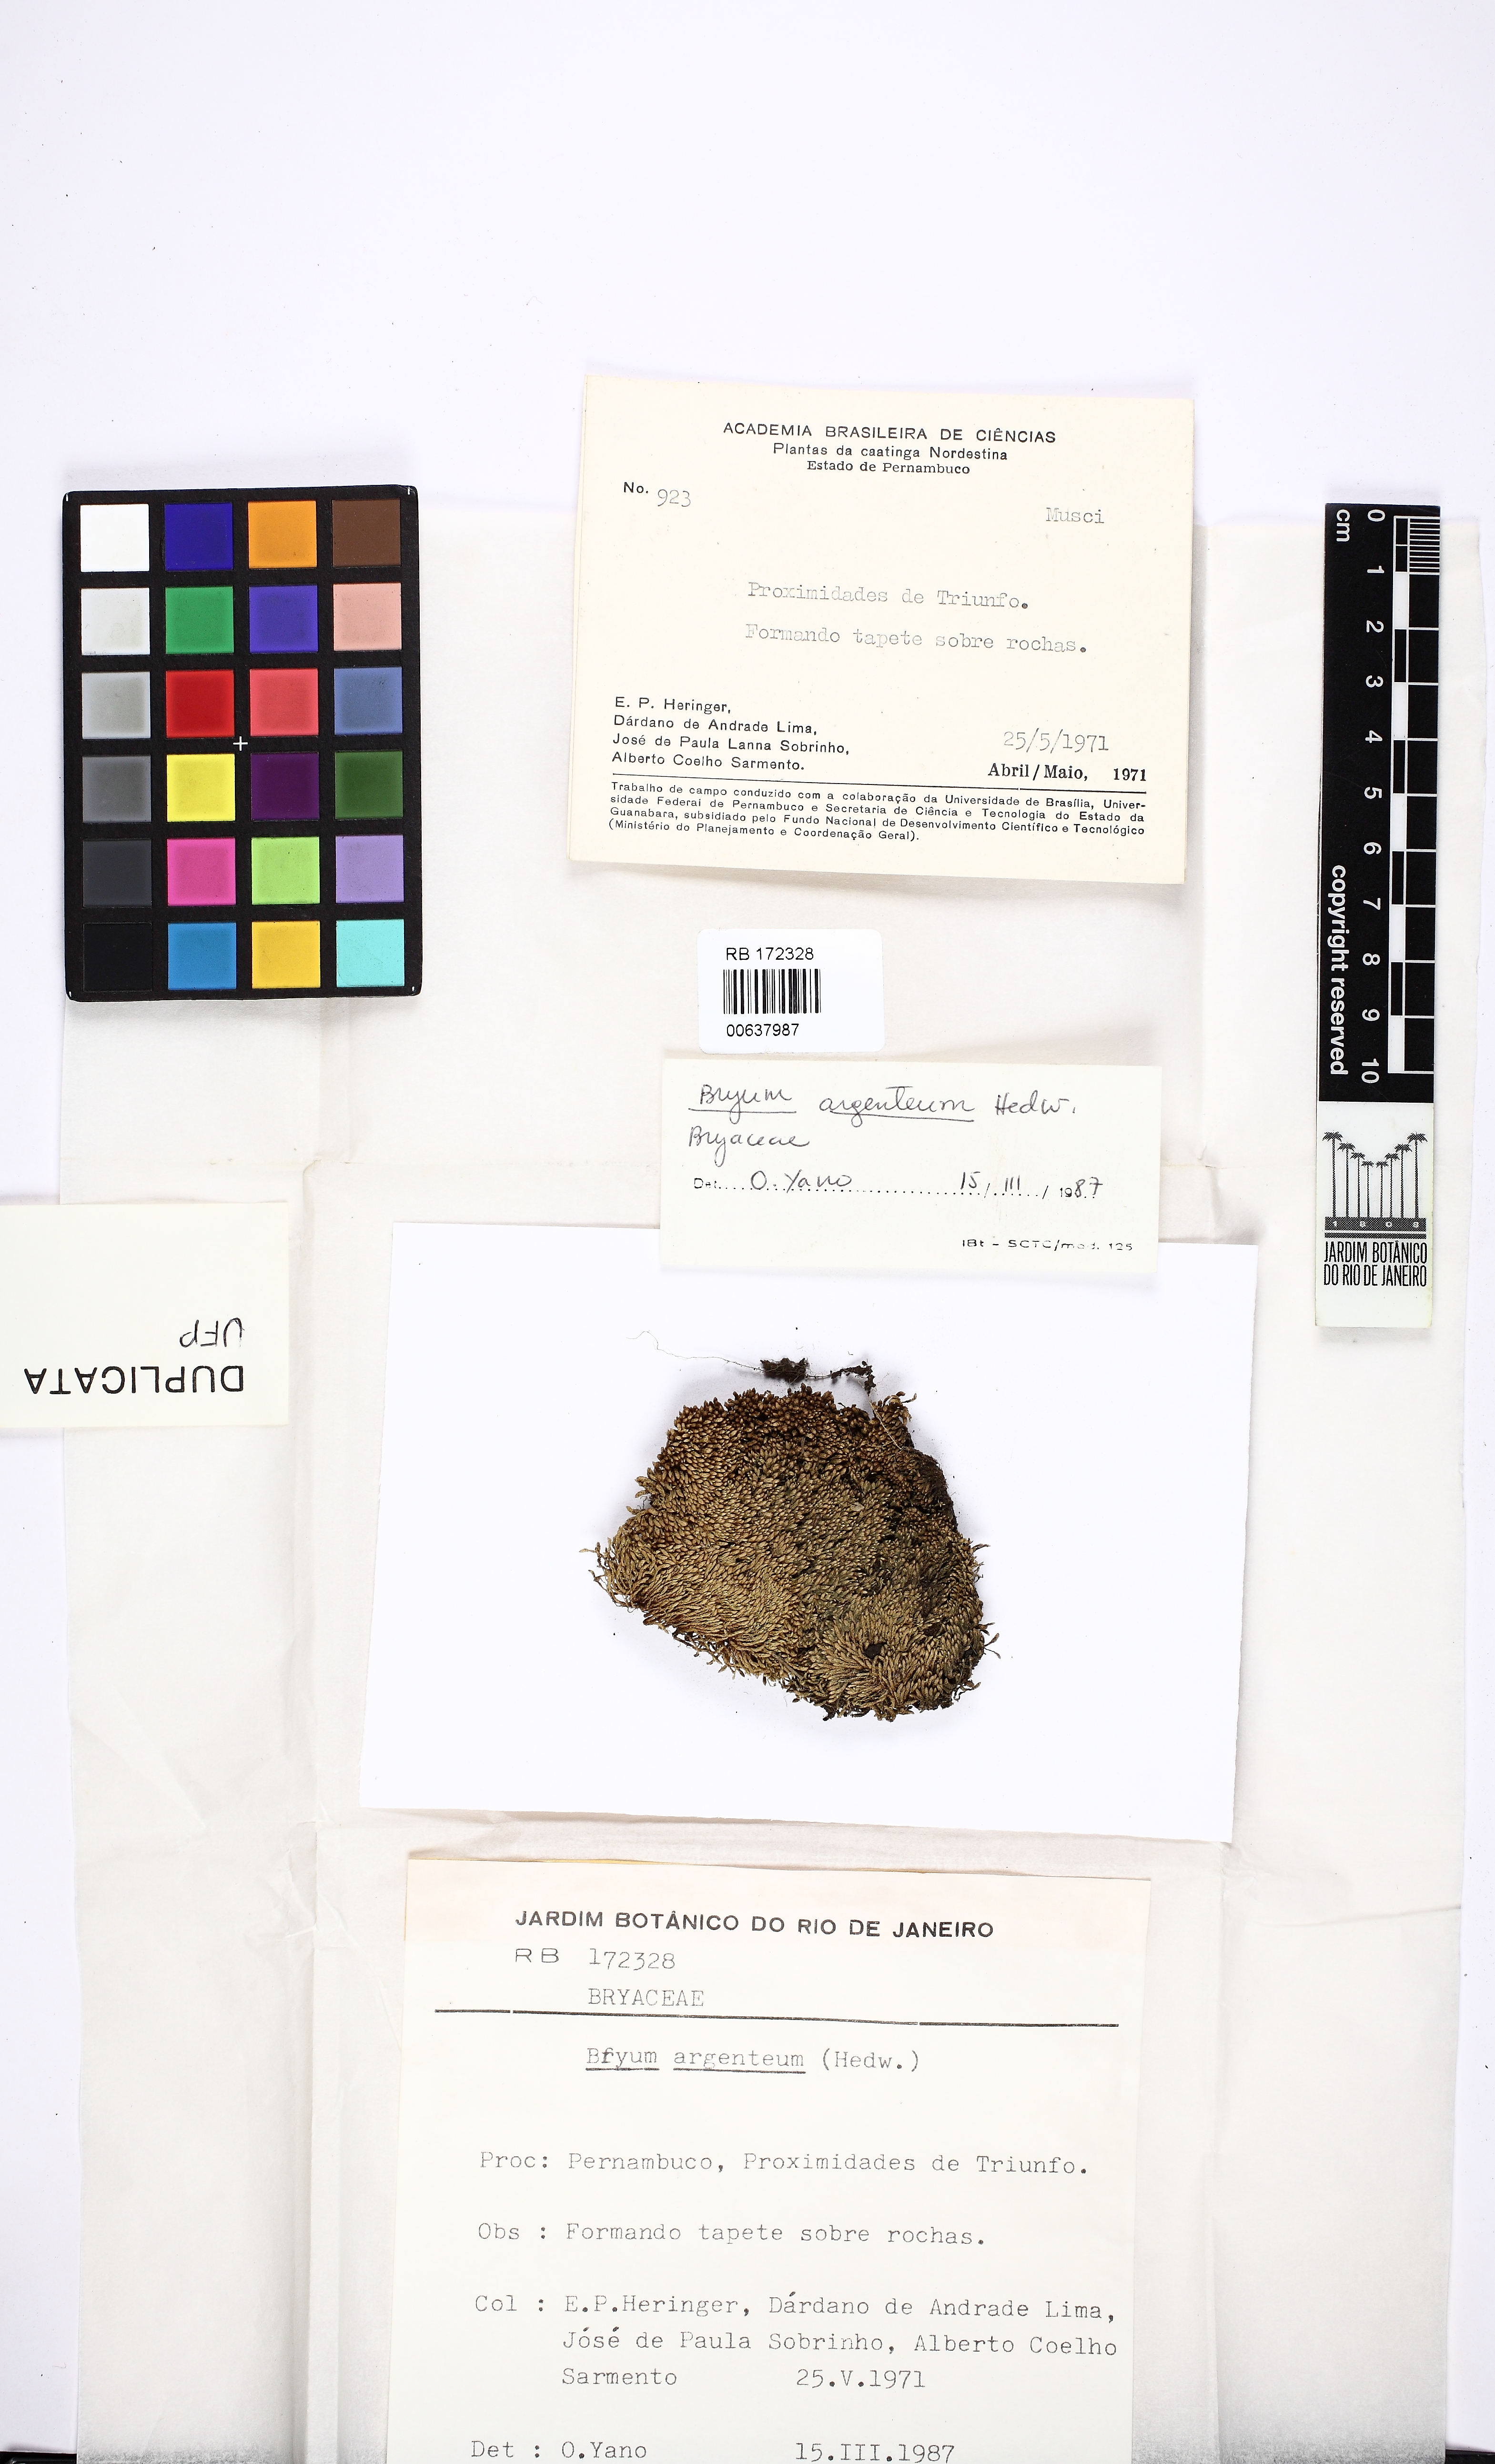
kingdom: Plantae
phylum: Bryophyta
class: Bryopsida
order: Bryales
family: Bryaceae
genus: Bryum
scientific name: Bryum argenteum
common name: Silver-moss
